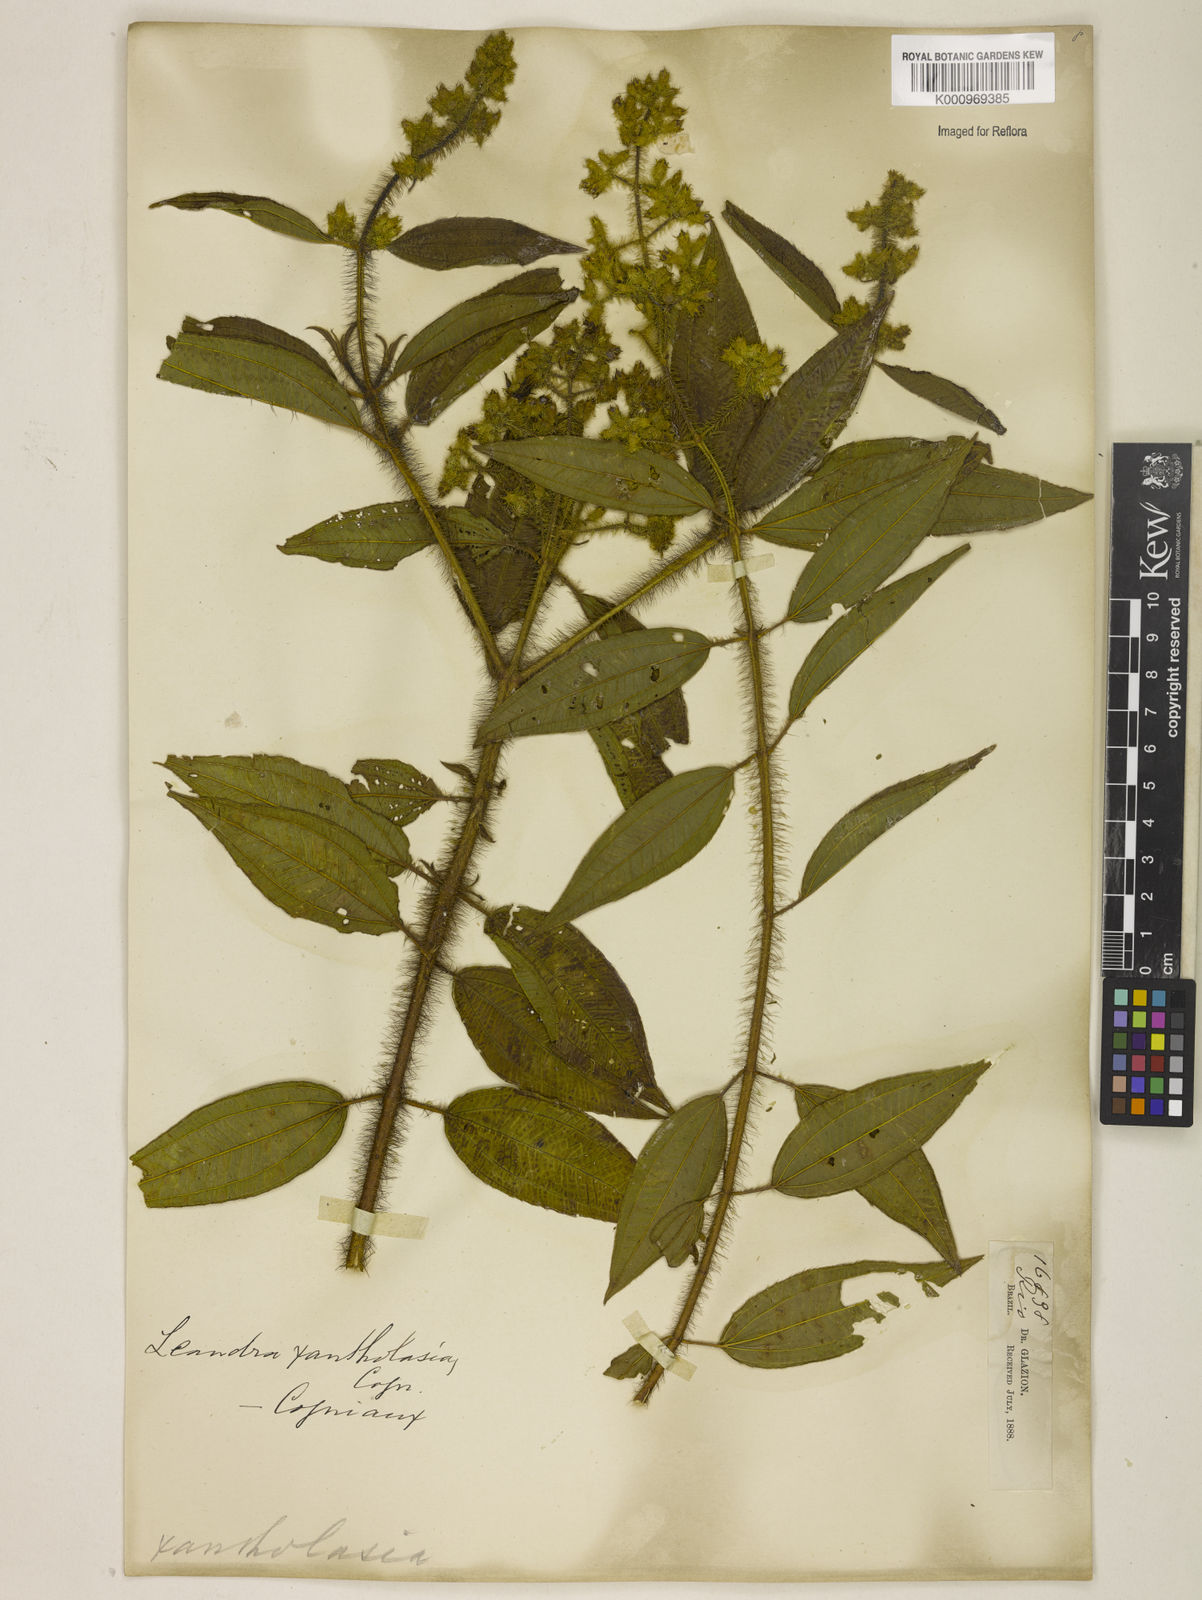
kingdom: Plantae
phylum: Tracheophyta
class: Magnoliopsida
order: Myrtales
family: Melastomataceae
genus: Miconia
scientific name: Miconia xantholasia
